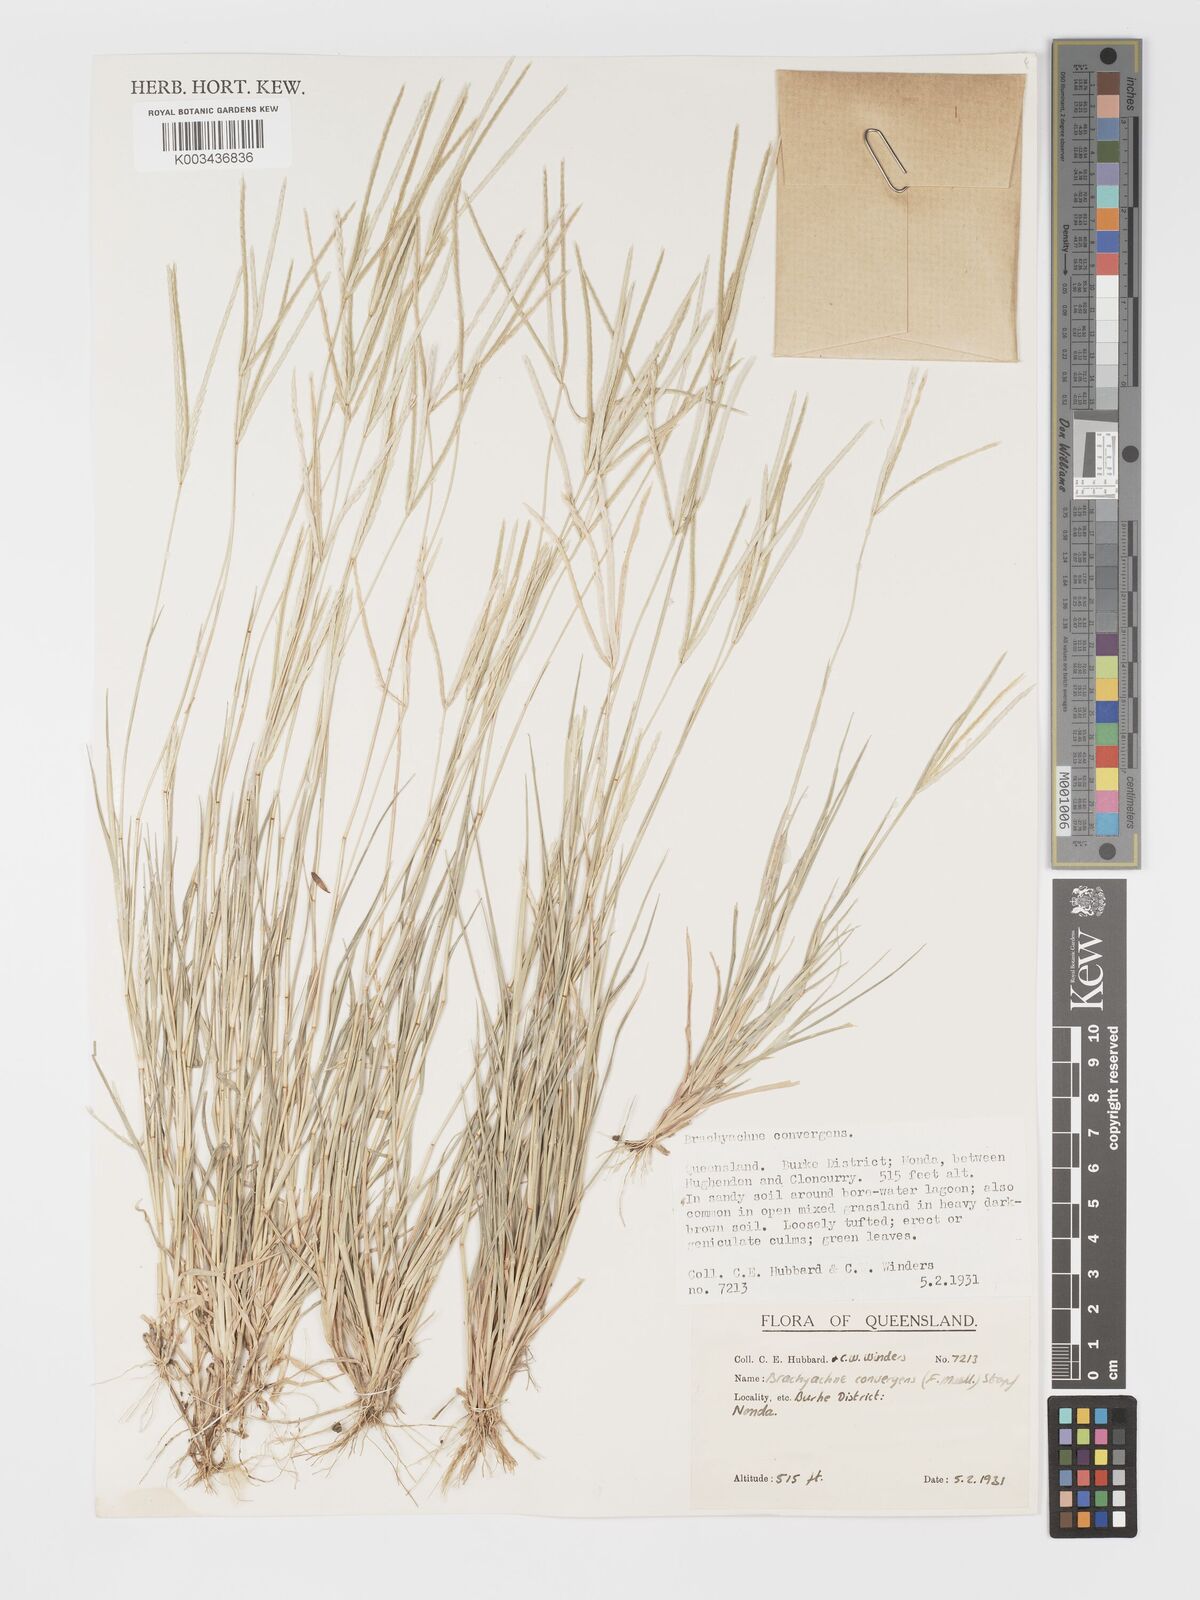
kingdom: Plantae
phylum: Tracheophyta
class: Liliopsida
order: Poales
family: Poaceae
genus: Cynodon
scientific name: Cynodon convergens
